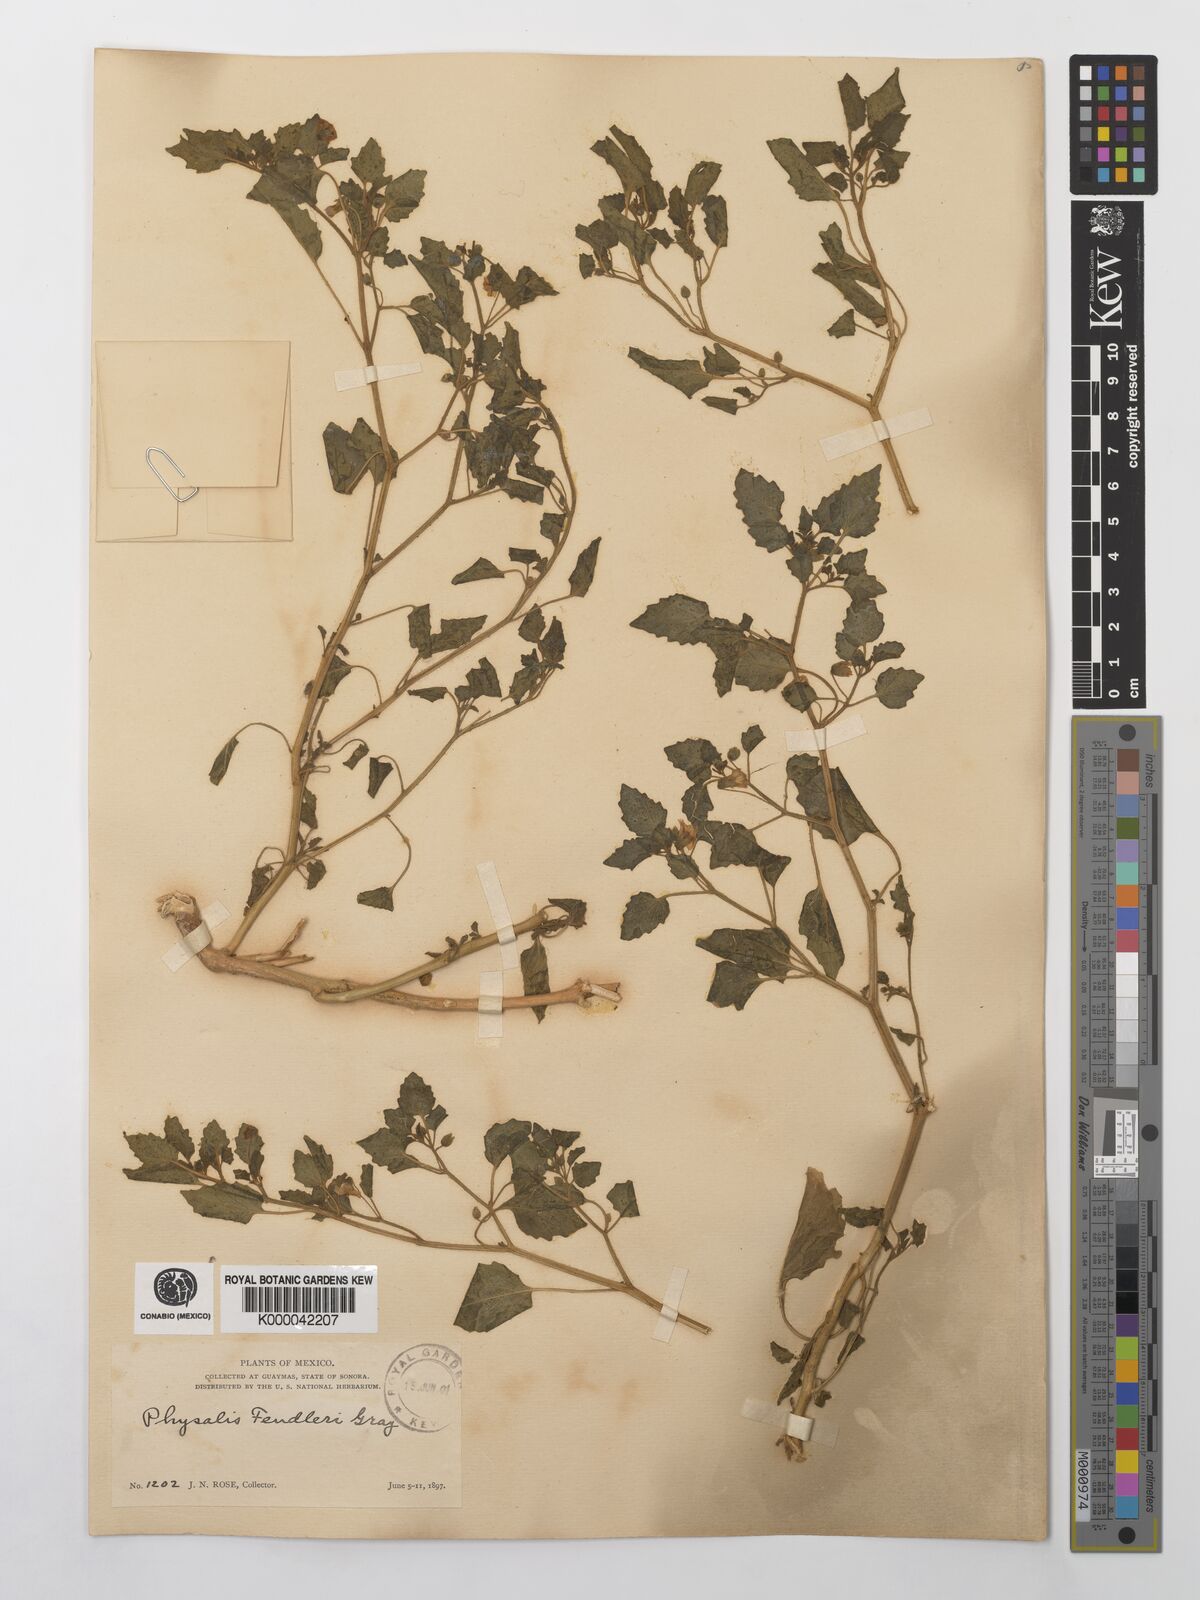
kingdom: Plantae
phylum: Tracheophyta
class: Magnoliopsida
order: Solanales
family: Solanaceae
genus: Physalis
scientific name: Physalis fendleri
